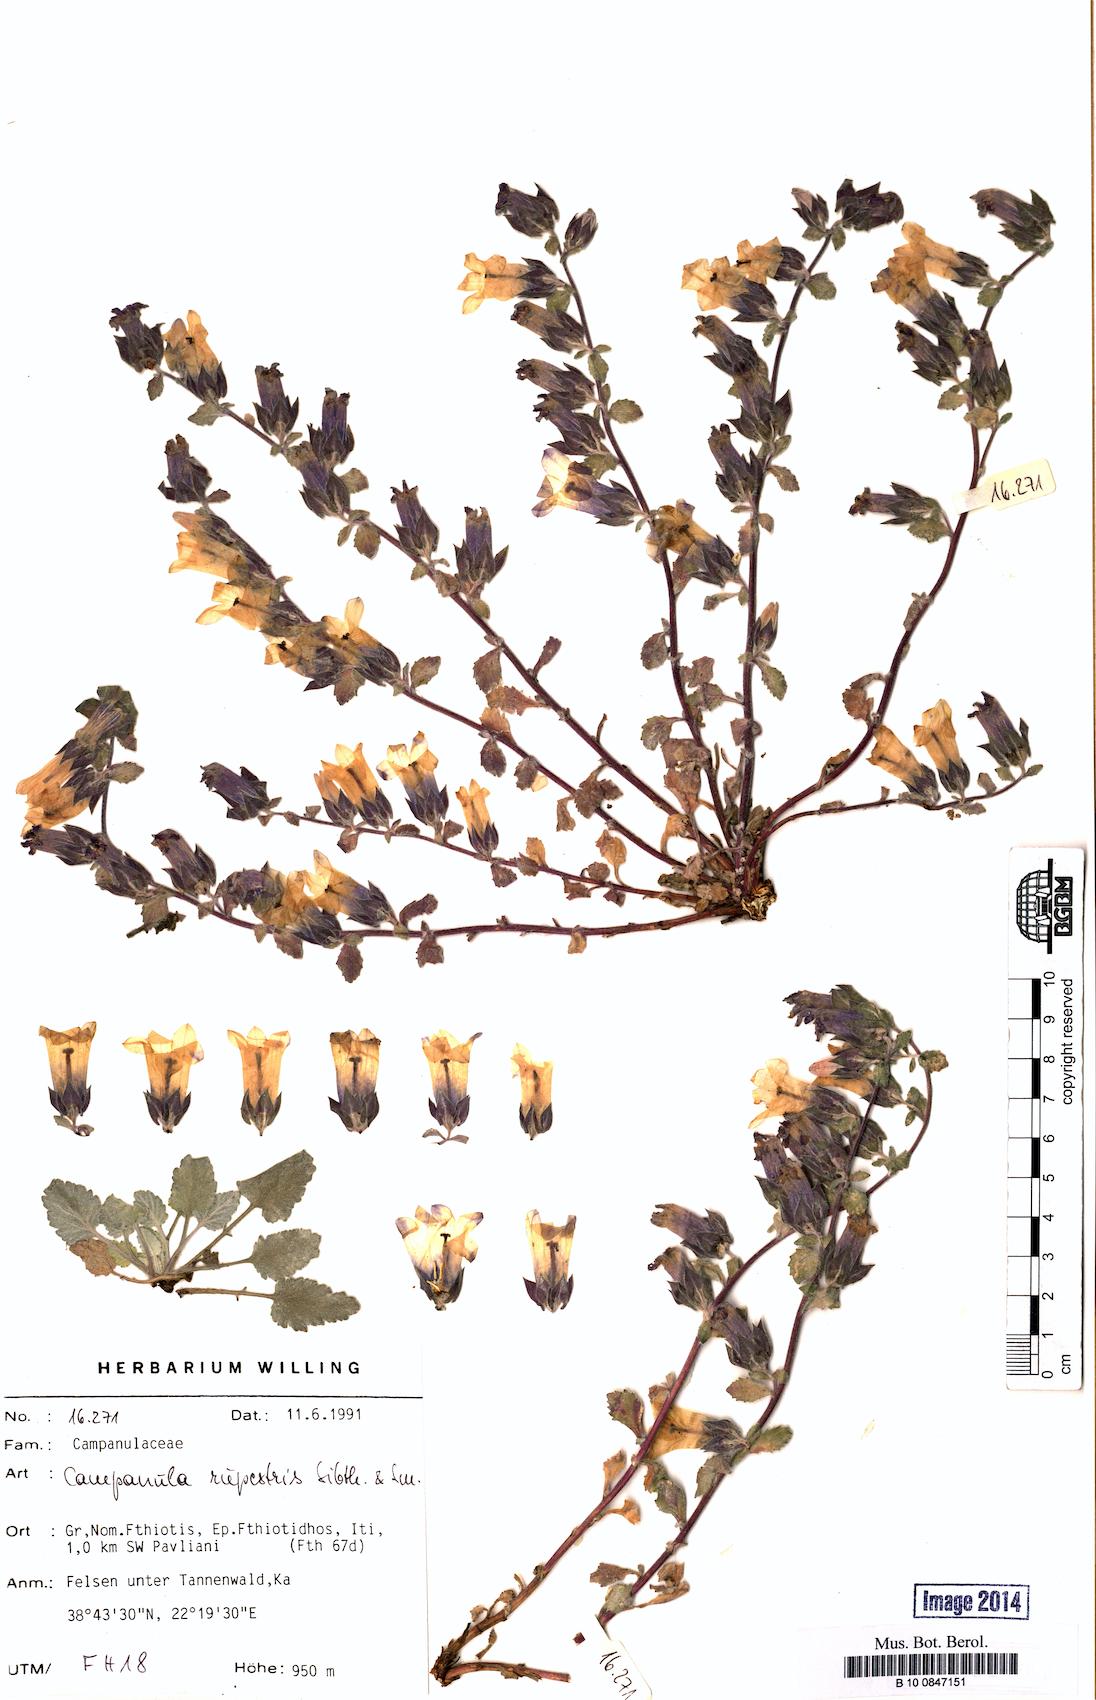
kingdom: Plantae
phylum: Tracheophyta
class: Magnoliopsida
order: Asterales
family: Campanulaceae
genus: Campanula
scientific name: Campanula rupestris
